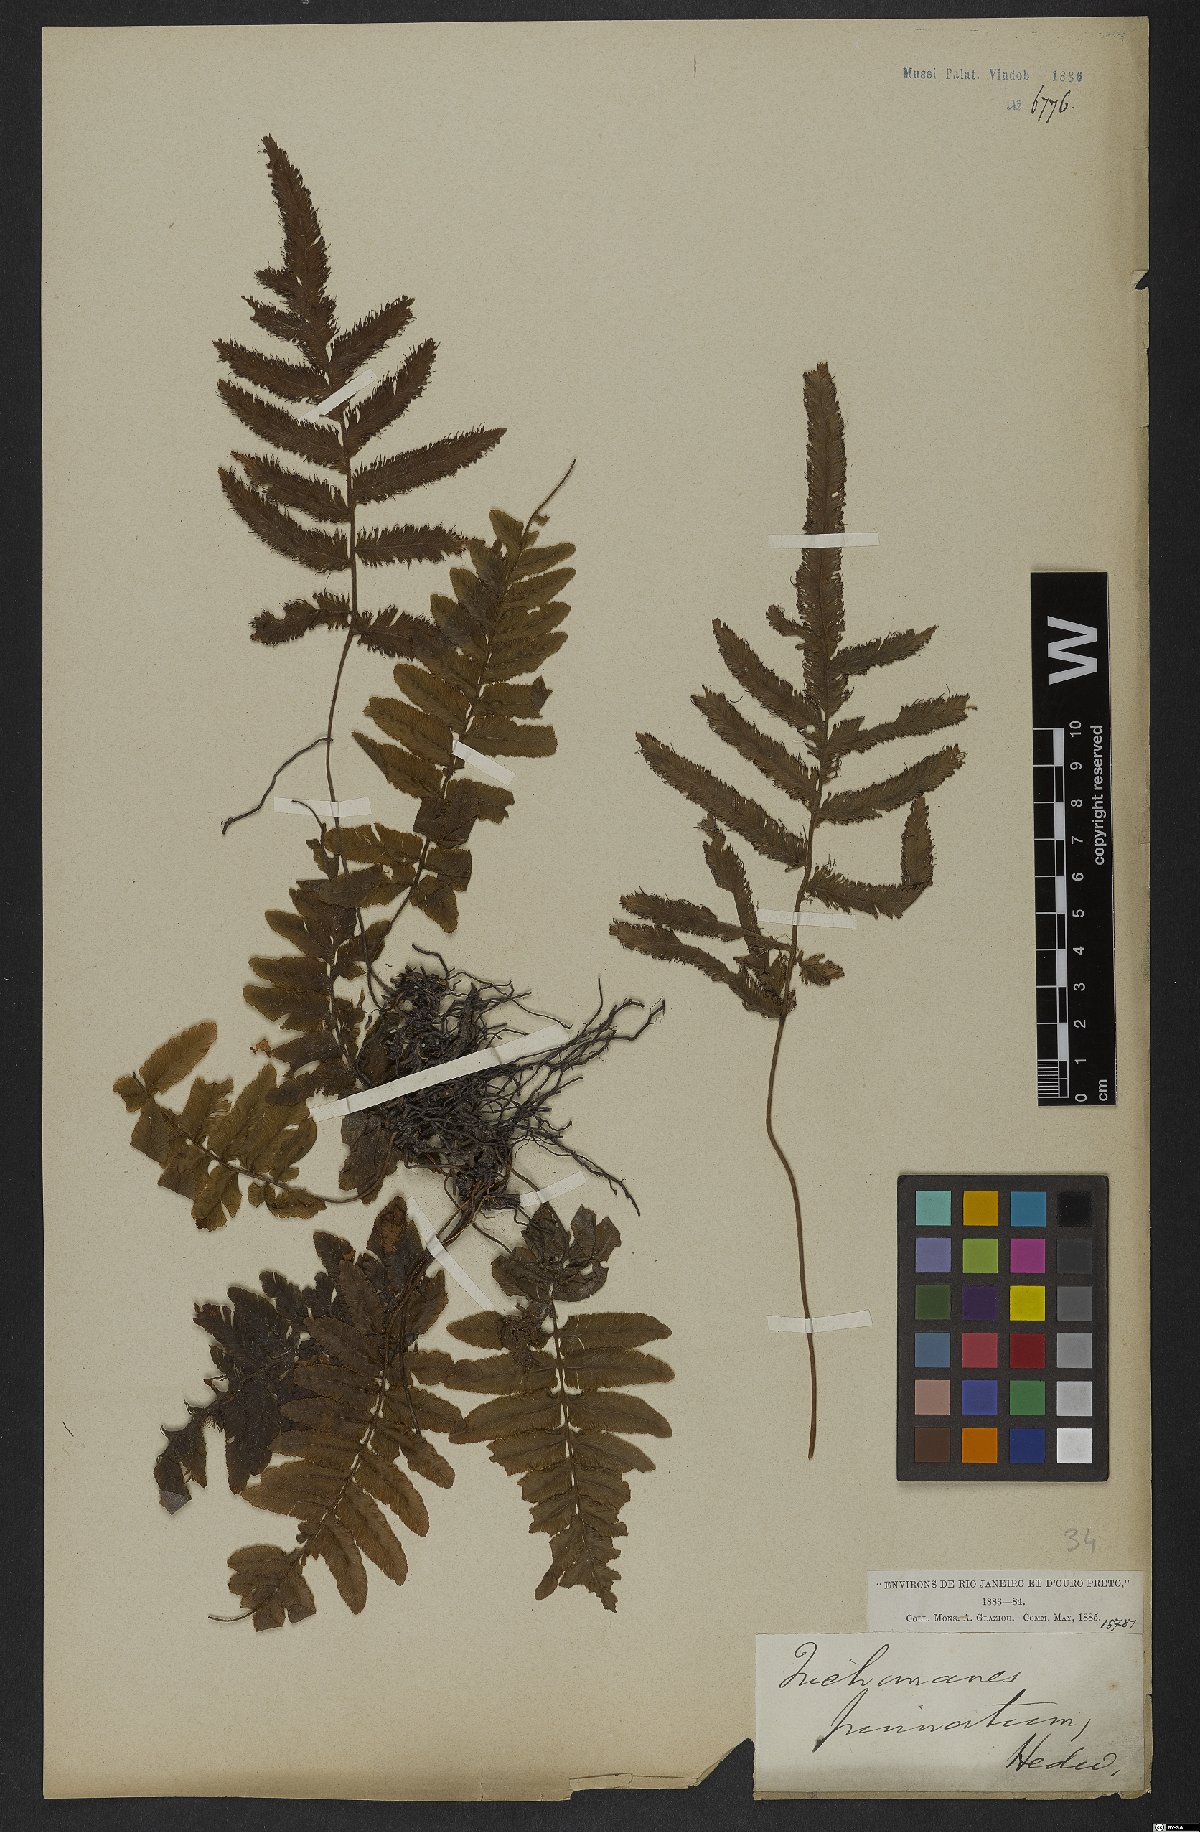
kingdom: Plantae
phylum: Tracheophyta
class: Polypodiopsida
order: Hymenophyllales
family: Hymenophyllaceae
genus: Trichomanes
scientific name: Trichomanes pinnatum
